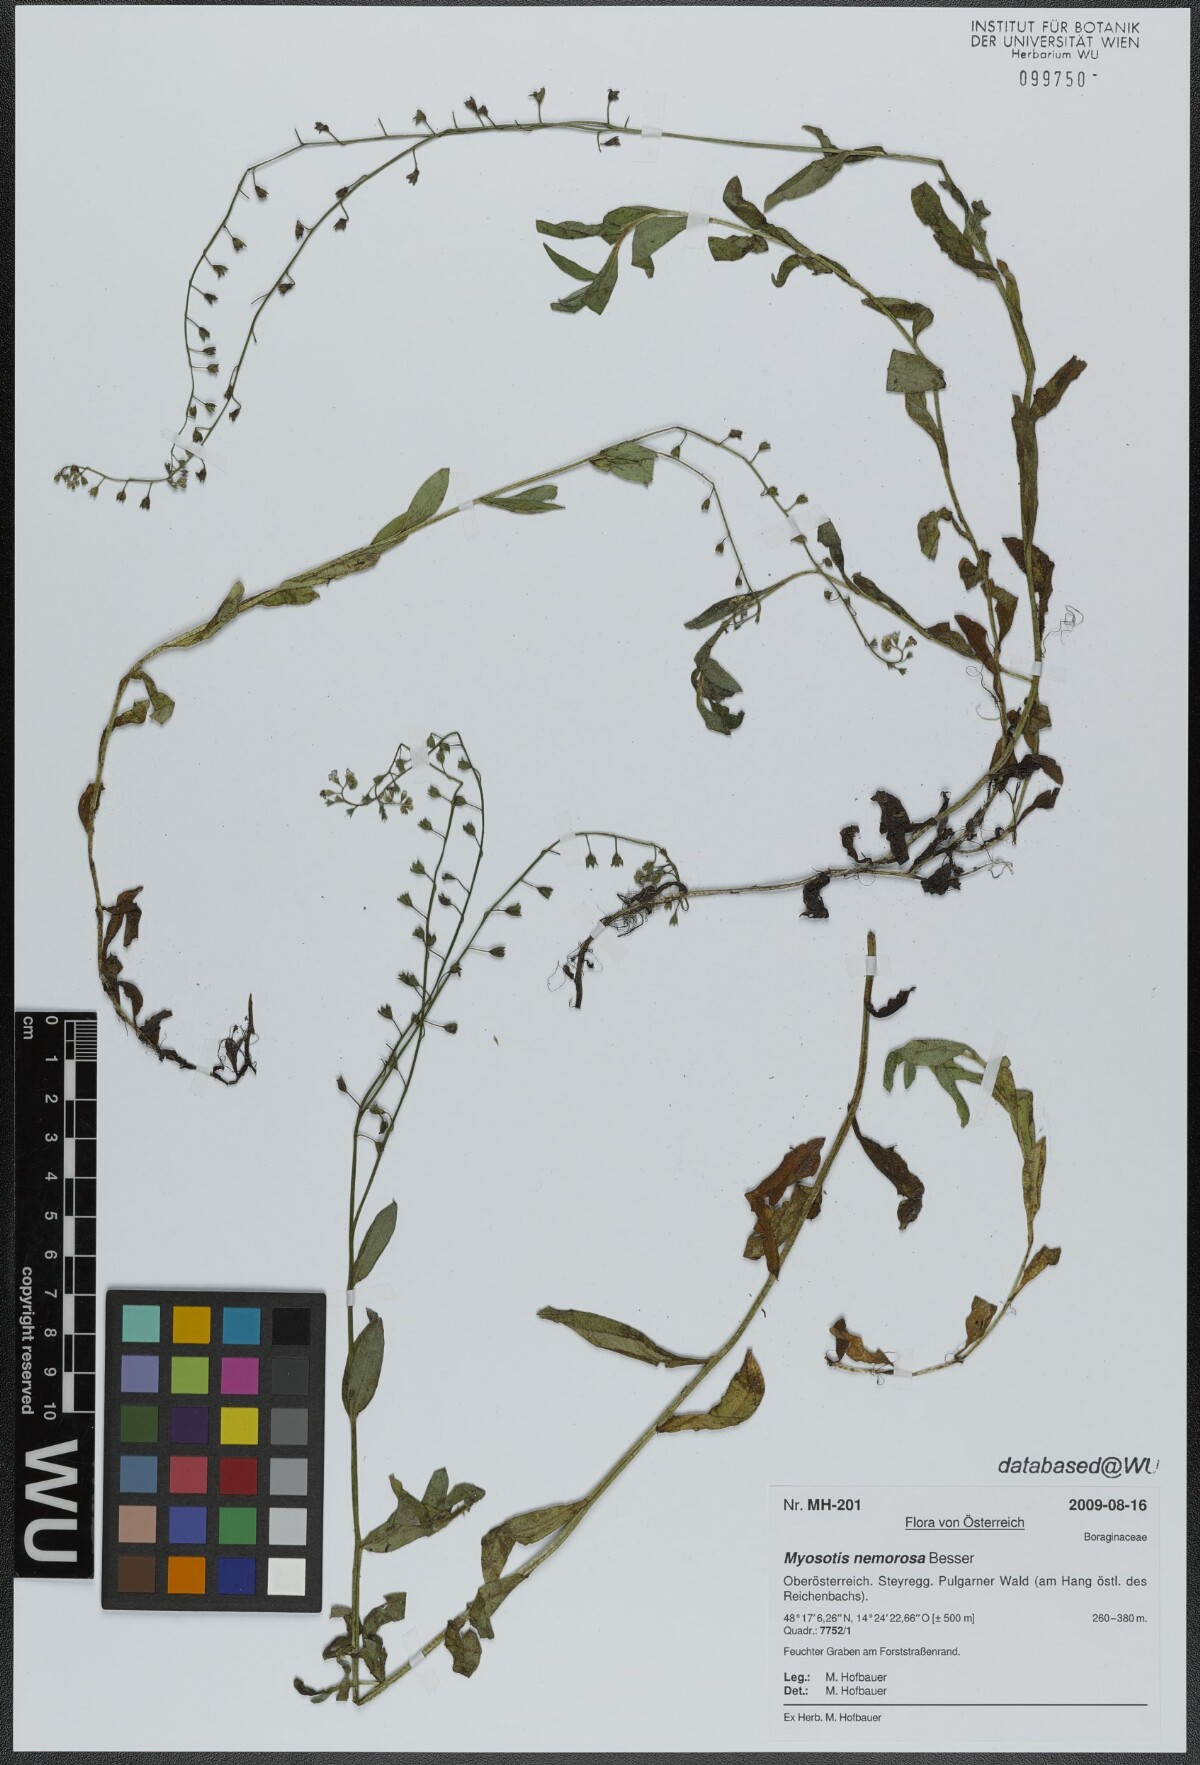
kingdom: Plantae
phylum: Tracheophyta
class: Magnoliopsida
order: Boraginales
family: Boraginaceae
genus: Myosotis
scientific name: Myosotis nemorosa
